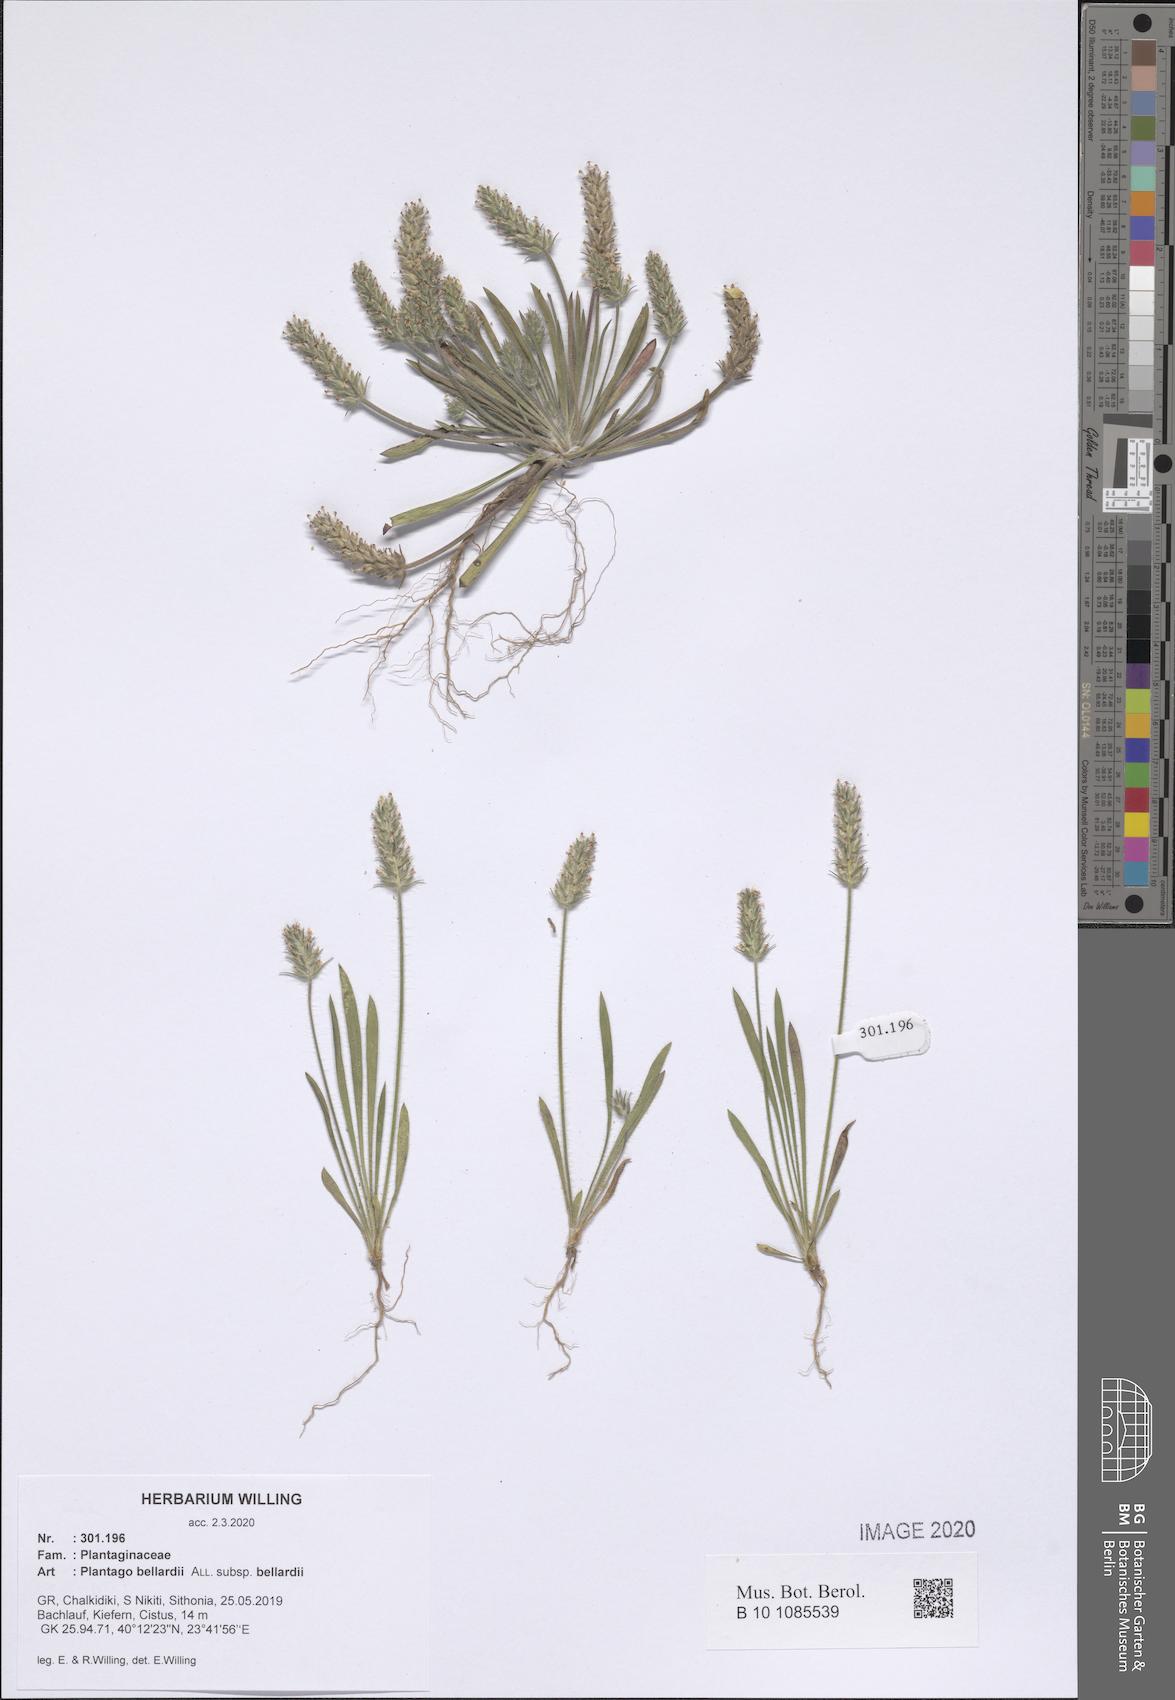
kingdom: Plantae
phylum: Tracheophyta
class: Magnoliopsida
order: Lamiales
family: Plantaginaceae
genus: Plantago
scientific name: Plantago bellardii
